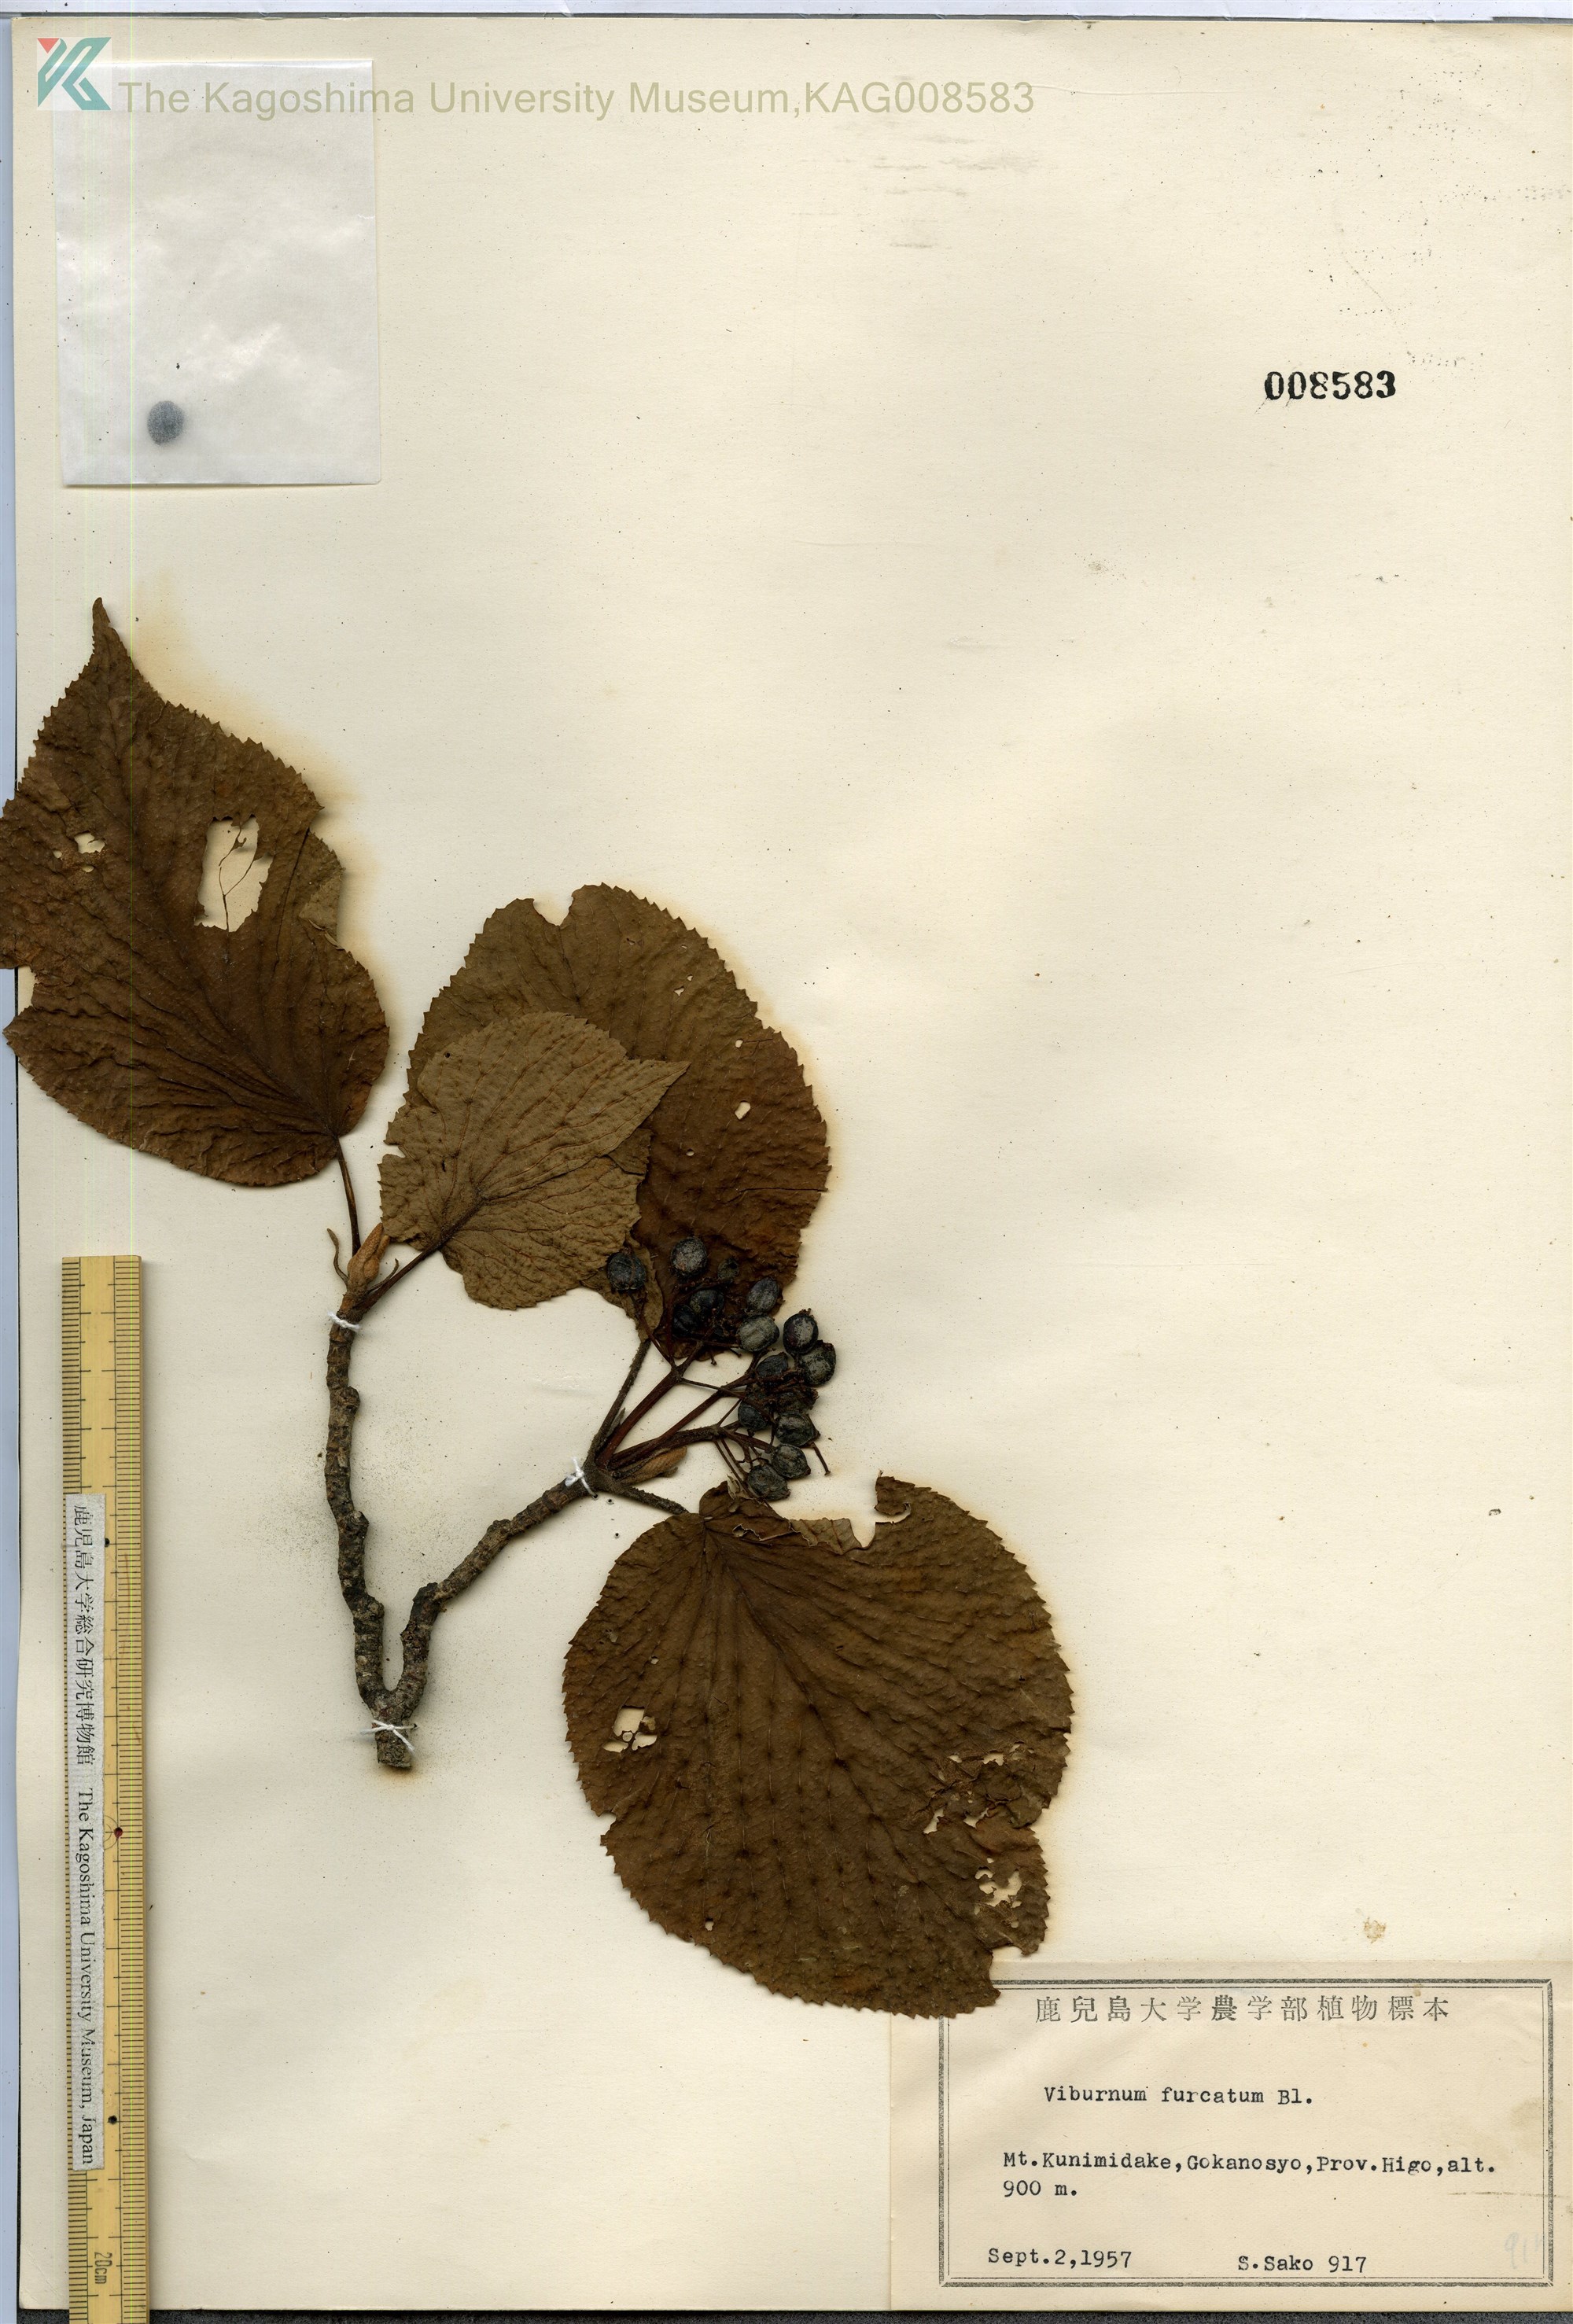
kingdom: Plantae
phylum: Tracheophyta
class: Magnoliopsida
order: Dipsacales
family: Viburnaceae
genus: Viburnum
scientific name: Viburnum furcatum
